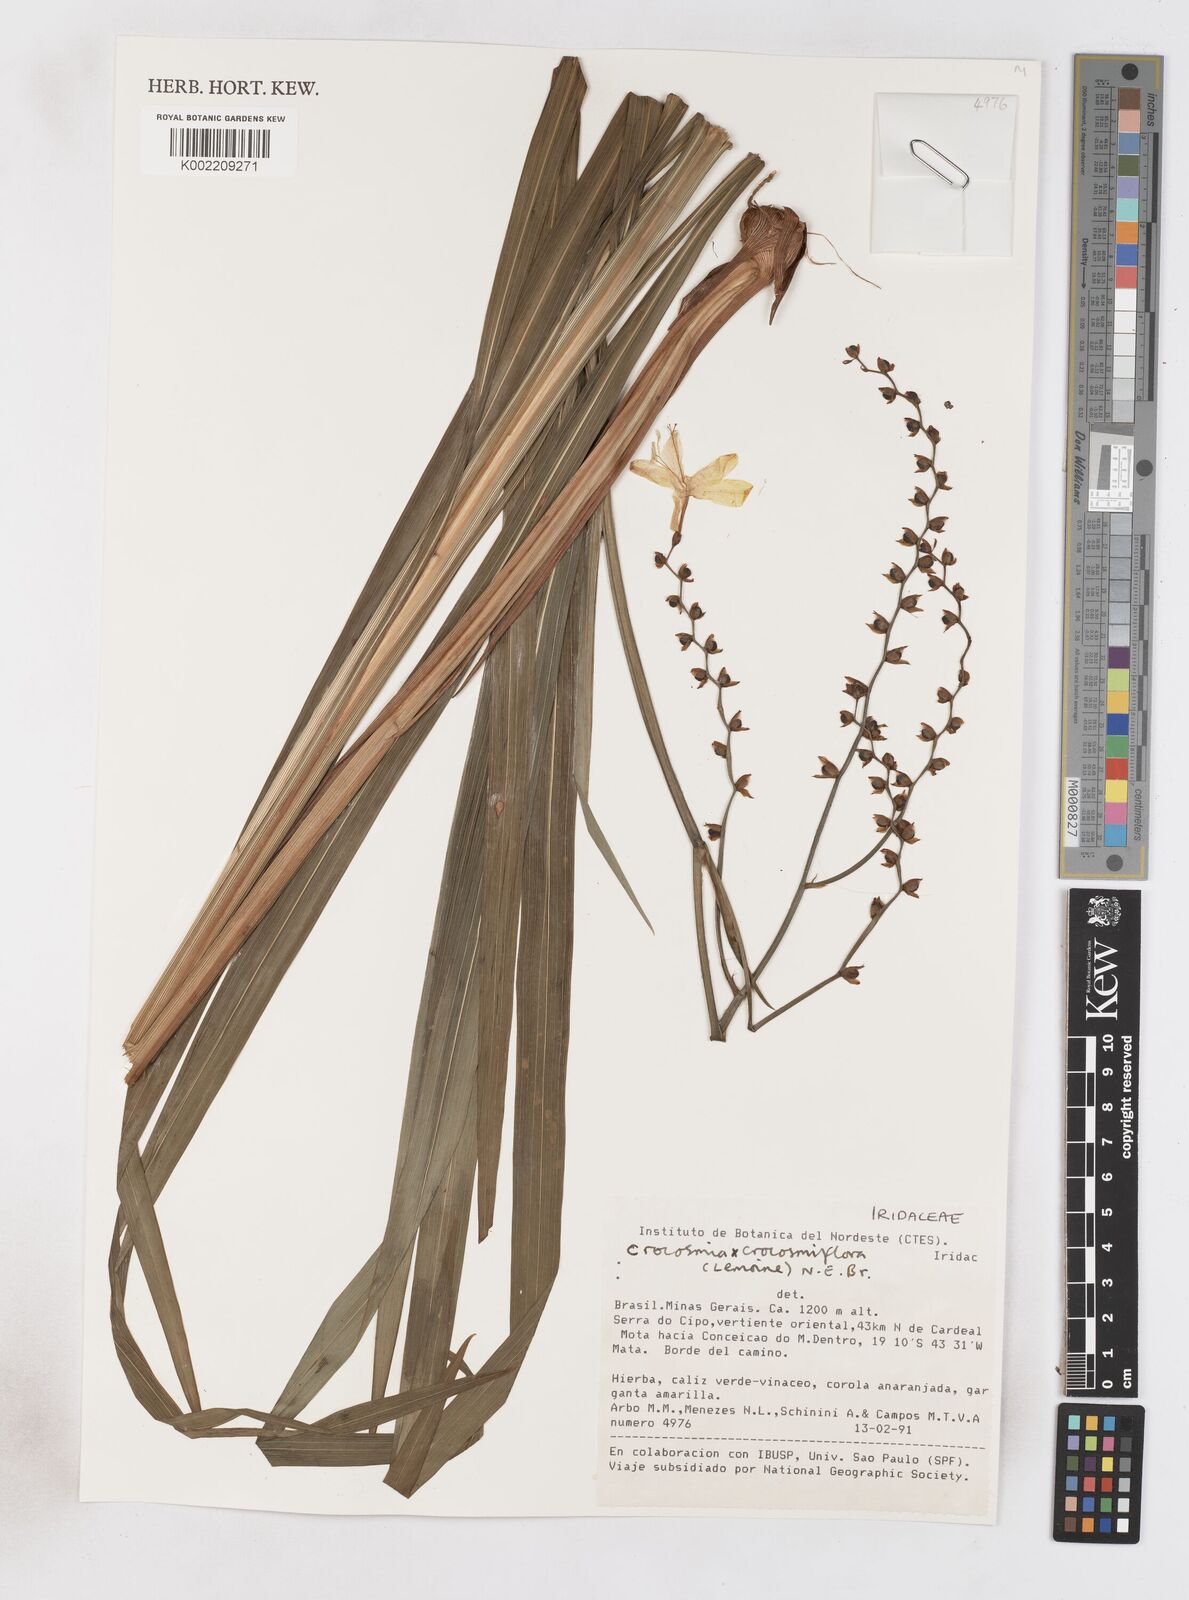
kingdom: Plantae
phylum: Tracheophyta
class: Liliopsida
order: Asparagales
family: Iridaceae
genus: Crocosmia
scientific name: Crocosmia crocosmiiflora
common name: Montbretia
